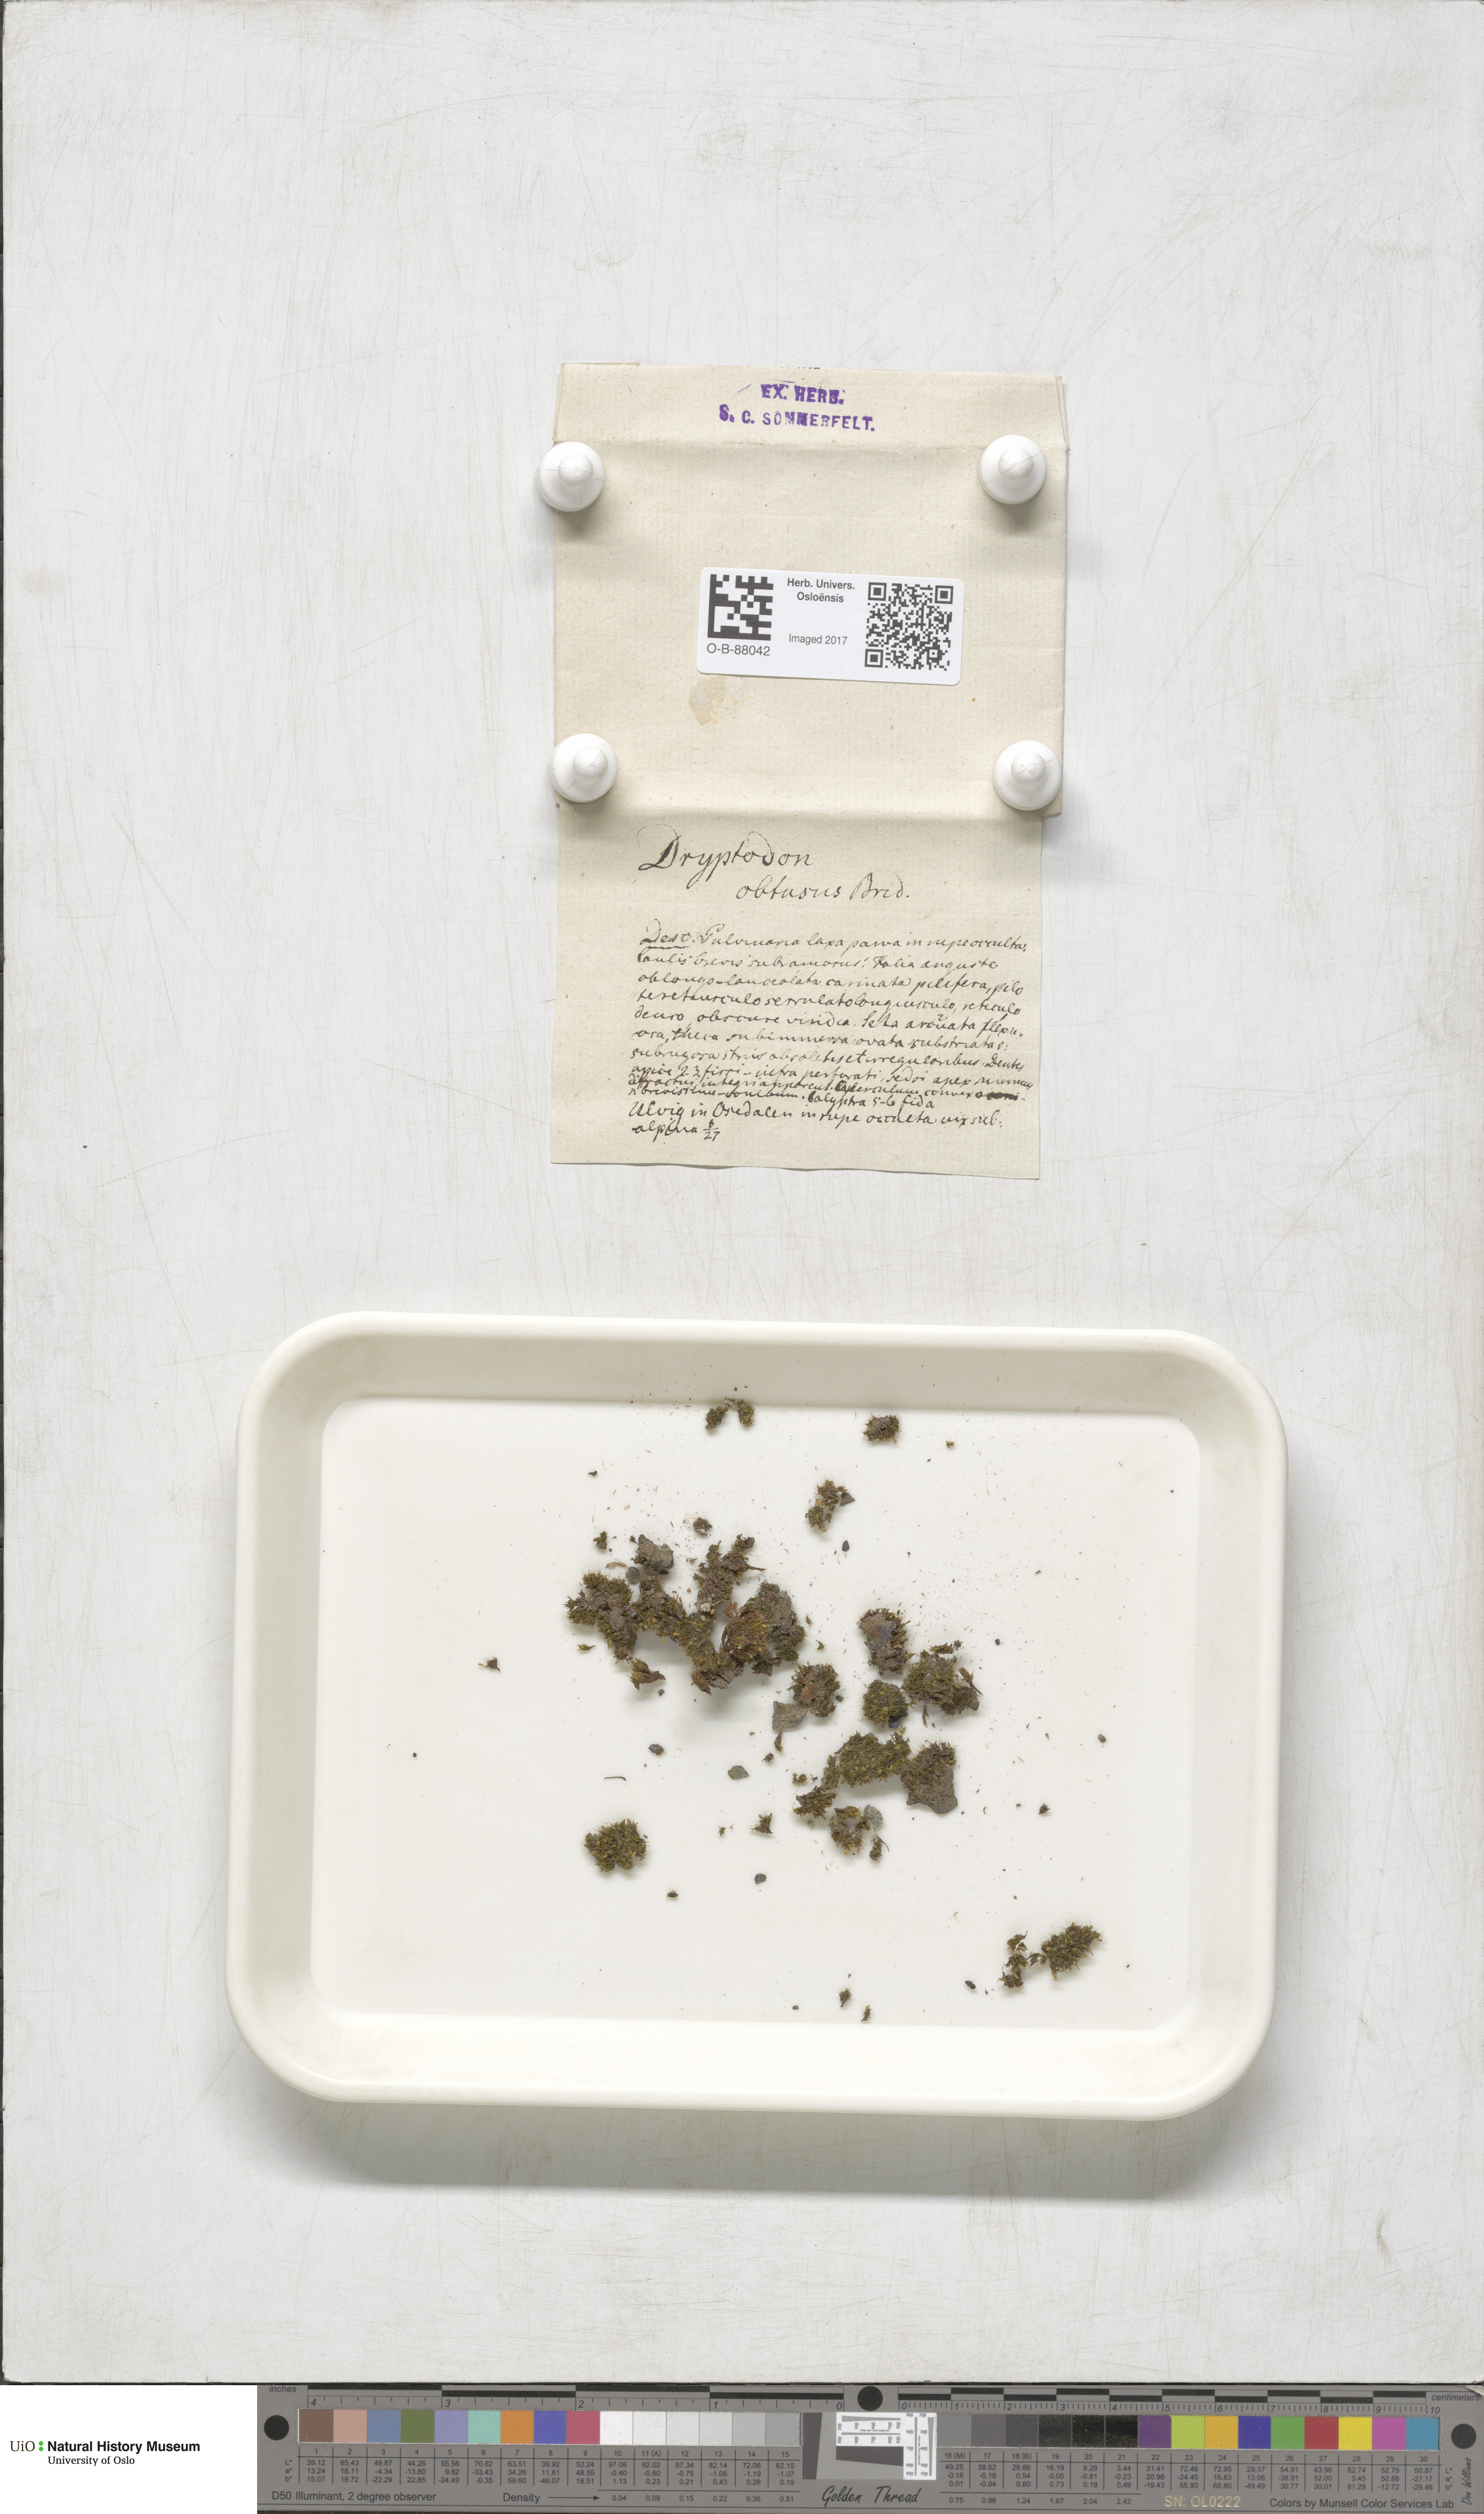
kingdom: Plantae
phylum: Bryophyta
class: Bryopsida
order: Grimmiales
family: Grimmiaceae
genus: Grimmia
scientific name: Grimmia pulvinata
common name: Grey-cushioned grimmia
